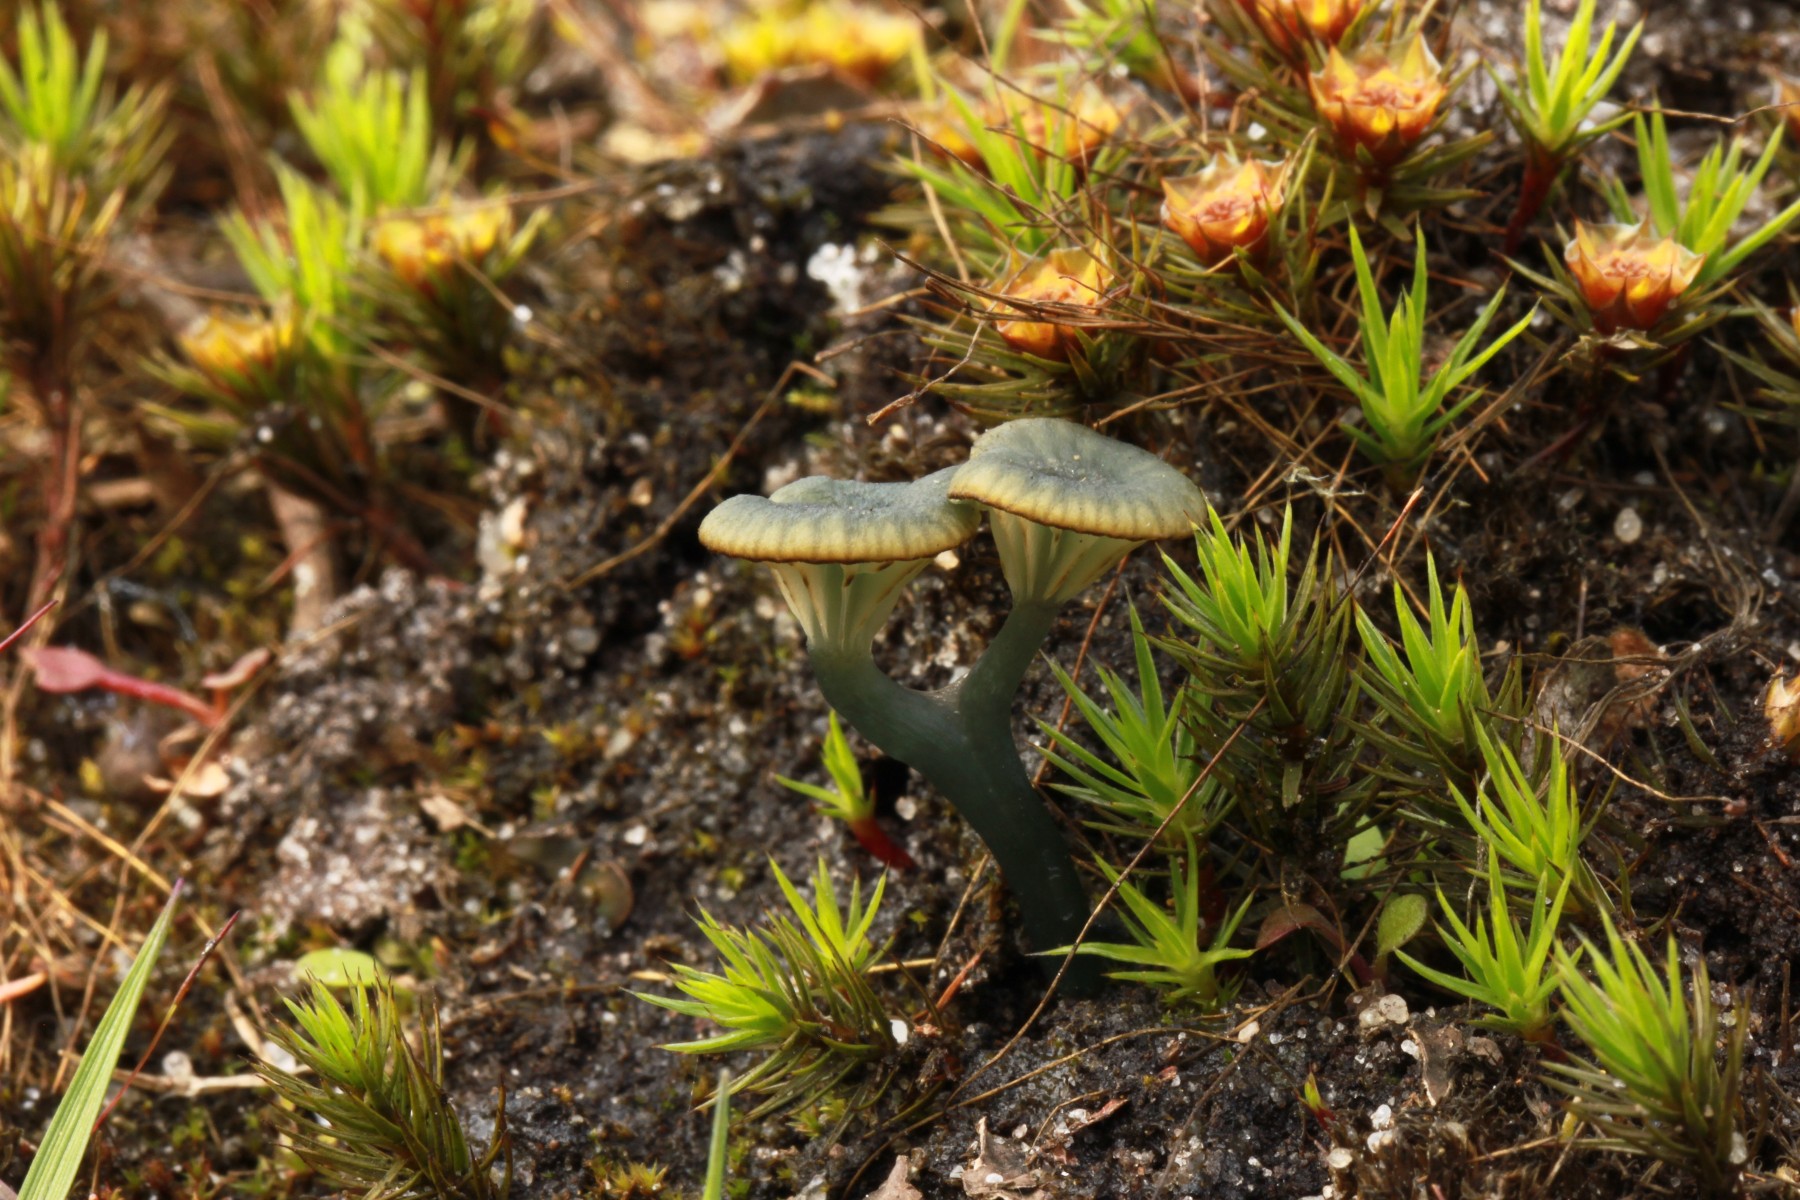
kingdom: Fungi
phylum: Basidiomycota
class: Agaricomycetes
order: Agaricales
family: Hygrophoraceae
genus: Arrhenia
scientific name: Arrhenia chlorocyanea
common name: blågrøn fontænehat
